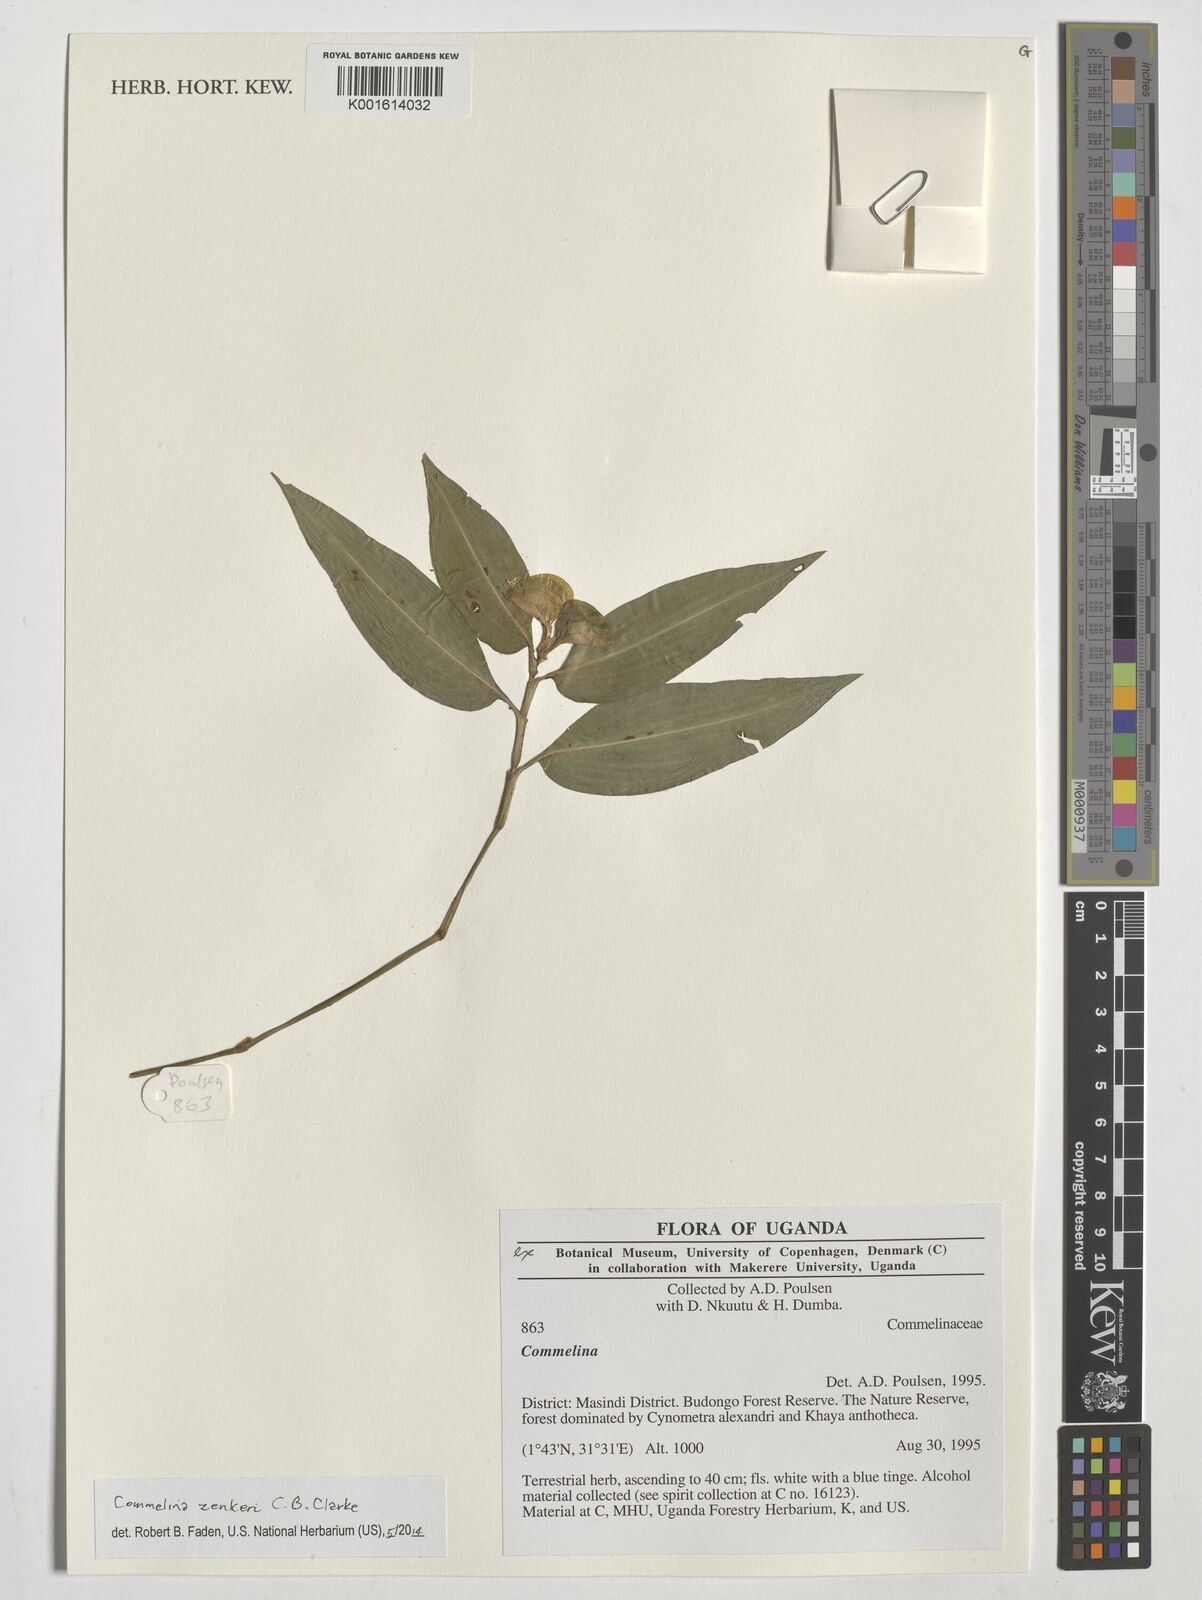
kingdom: Plantae
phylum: Tracheophyta
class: Liliopsida
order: Commelinales
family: Commelinaceae
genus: Commelina
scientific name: Commelina zenkeri
